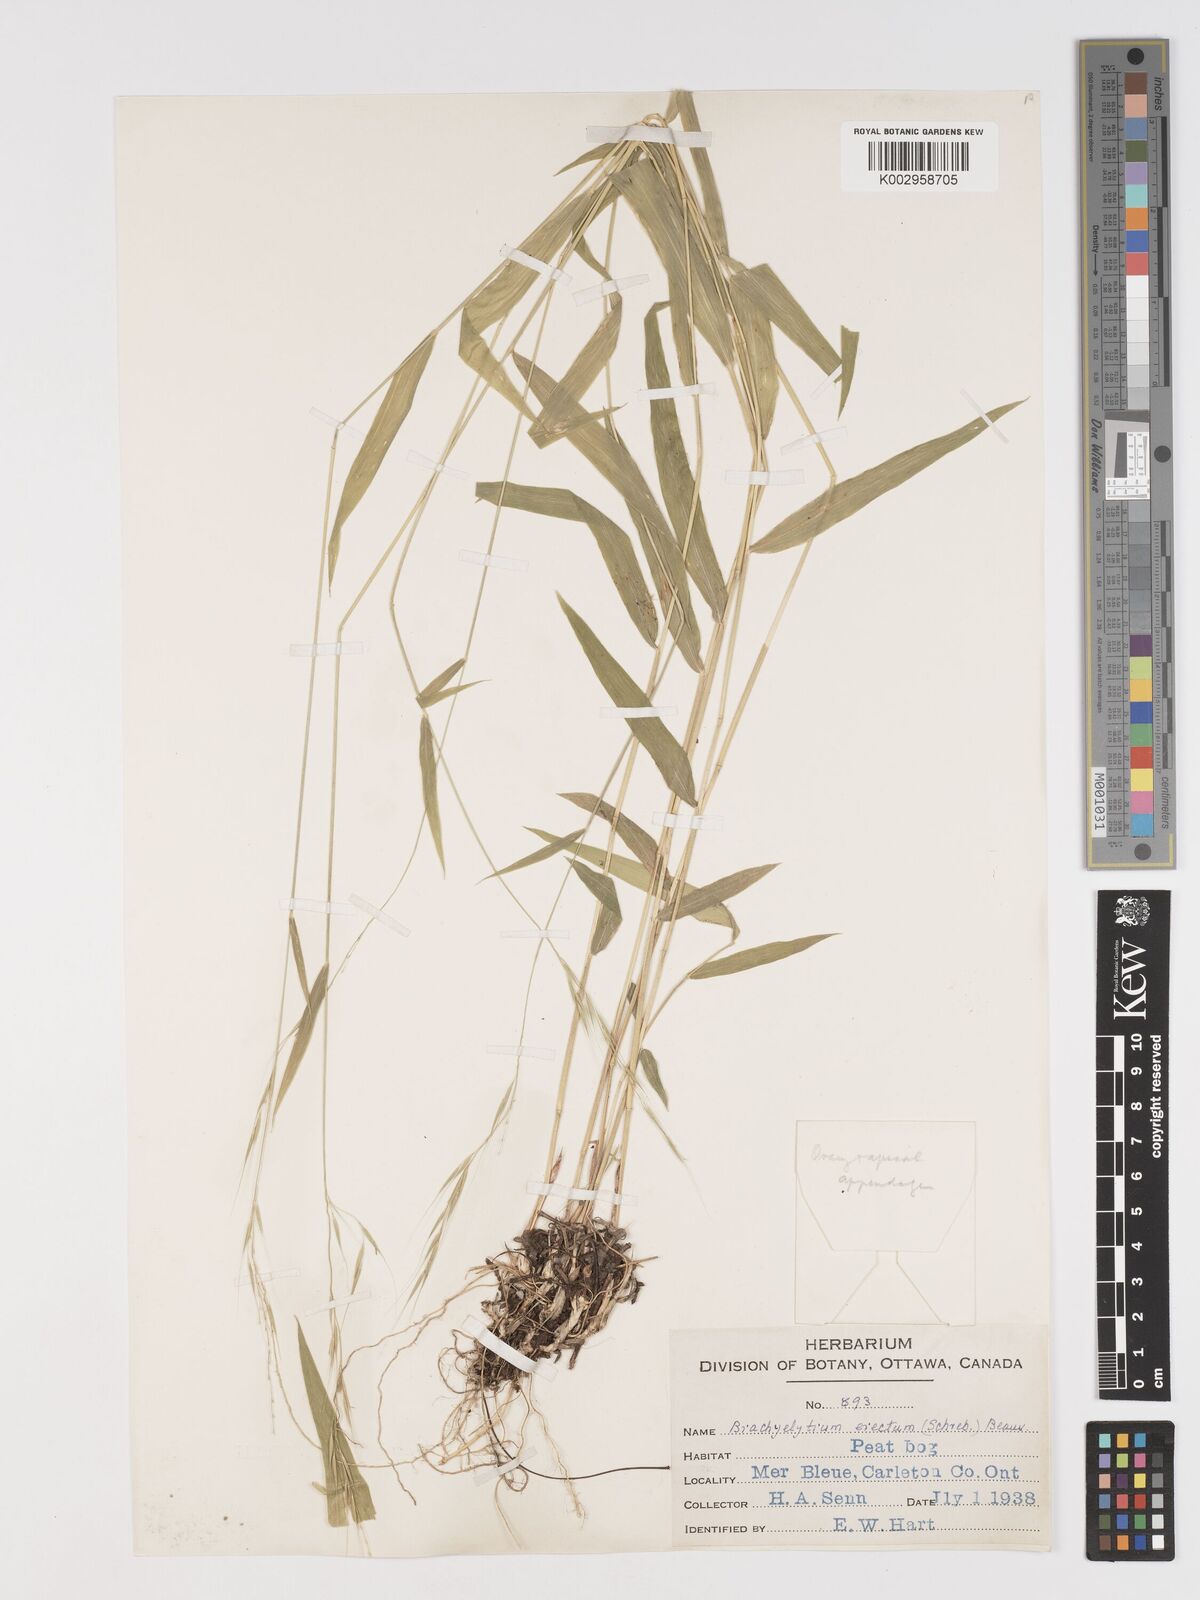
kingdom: Plantae
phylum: Tracheophyta
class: Liliopsida
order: Poales
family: Poaceae
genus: Brachyelytrum
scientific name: Brachyelytrum aristosum
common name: Northern shorthusk
